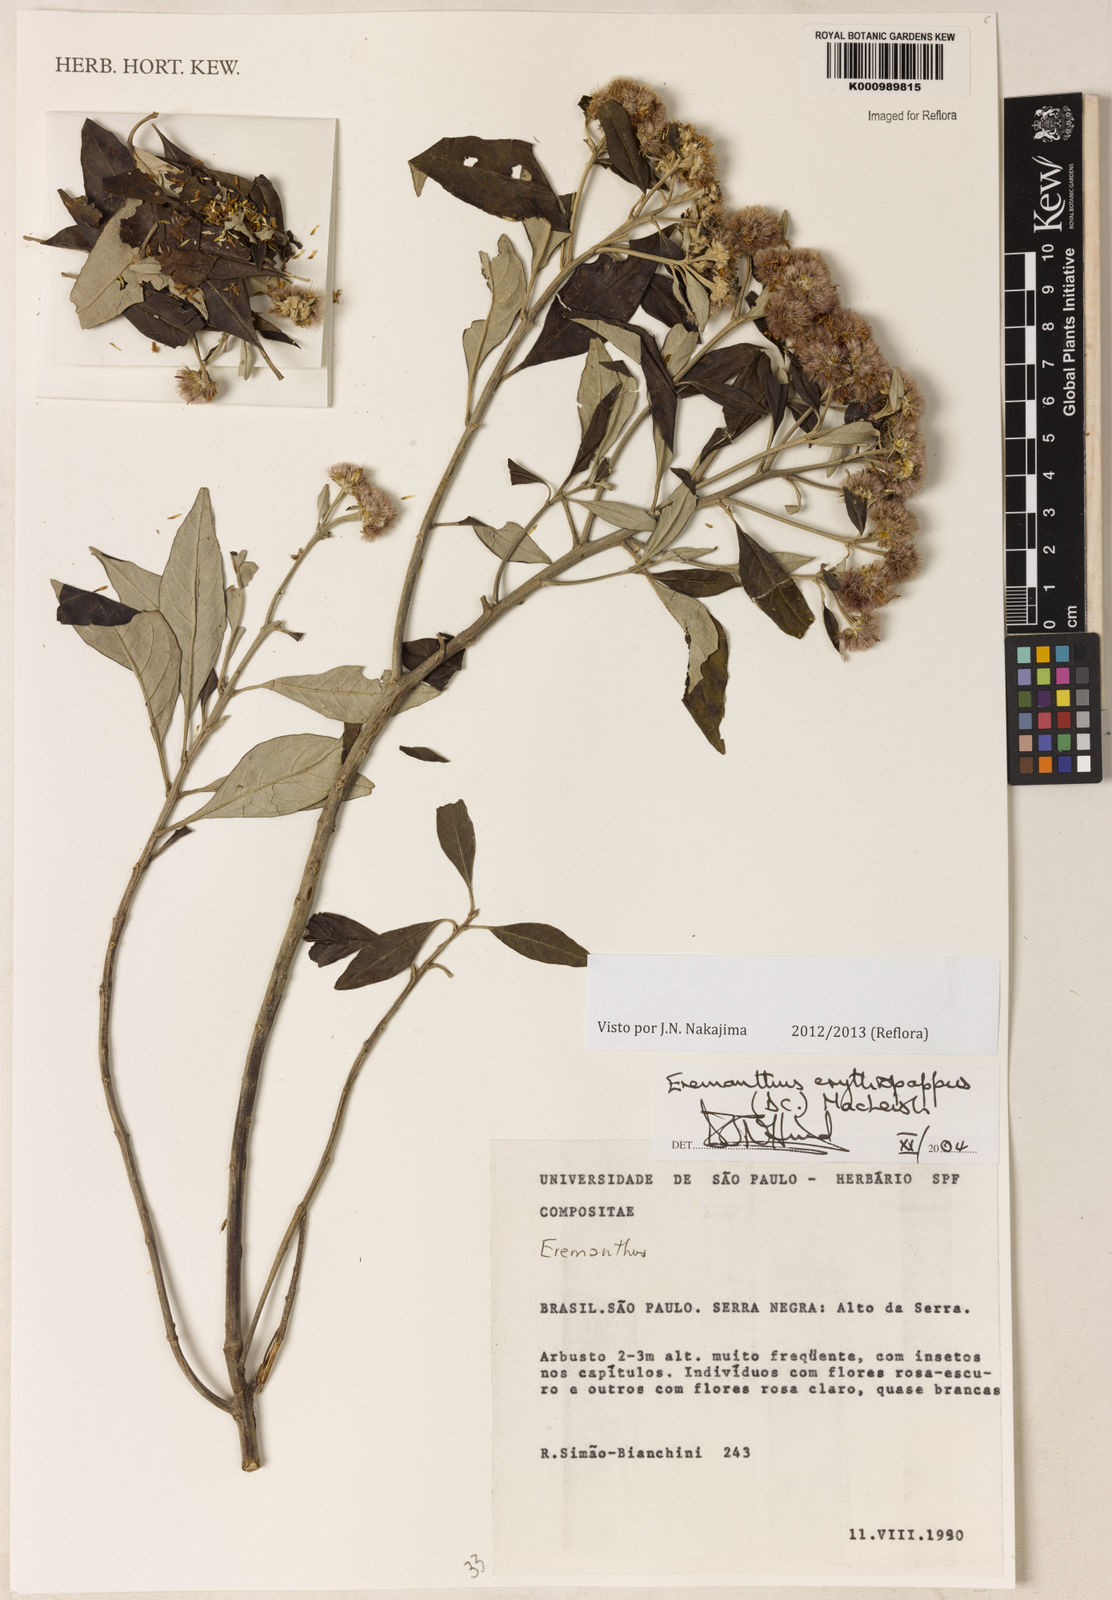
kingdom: Plantae
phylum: Tracheophyta
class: Magnoliopsida
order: Asterales
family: Asteraceae
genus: Eremanthus
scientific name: Eremanthus erythropappus
